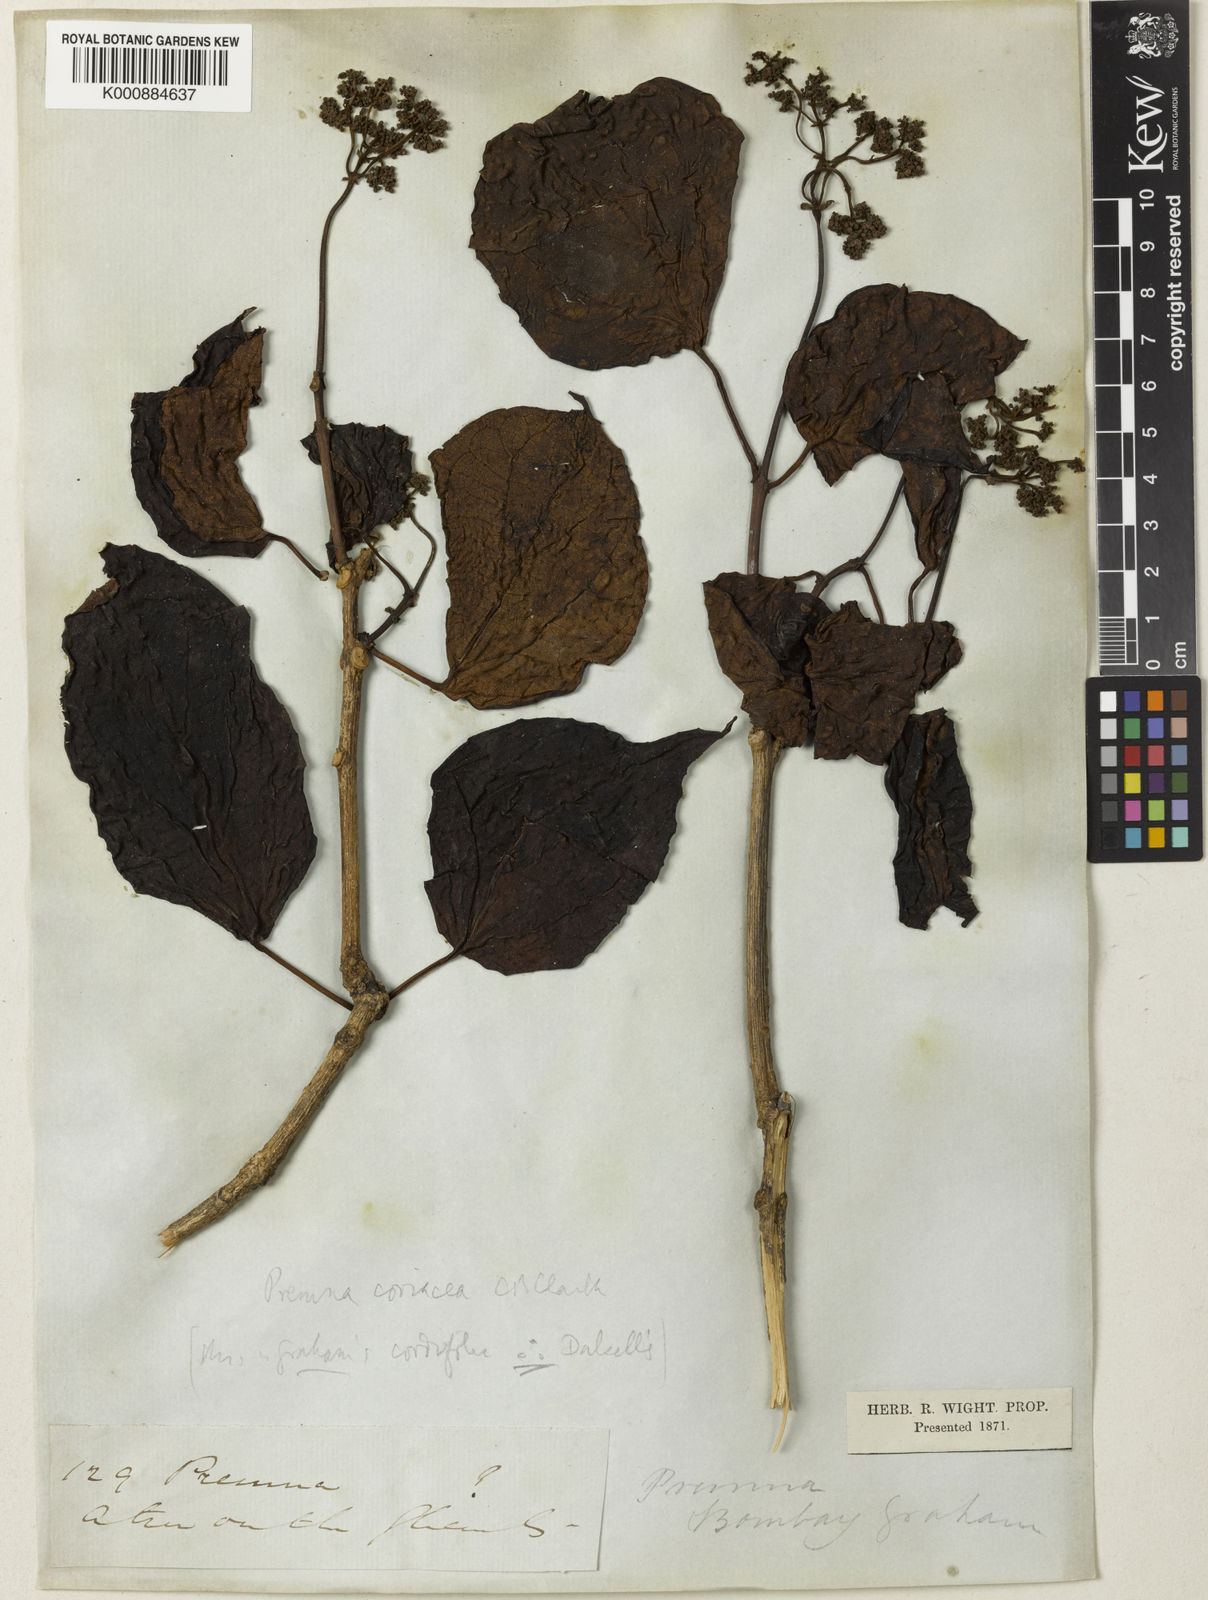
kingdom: Plantae
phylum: Tracheophyta
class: Magnoliopsida
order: Lamiales
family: Lamiaceae
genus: Premna
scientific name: Premna coriacea
